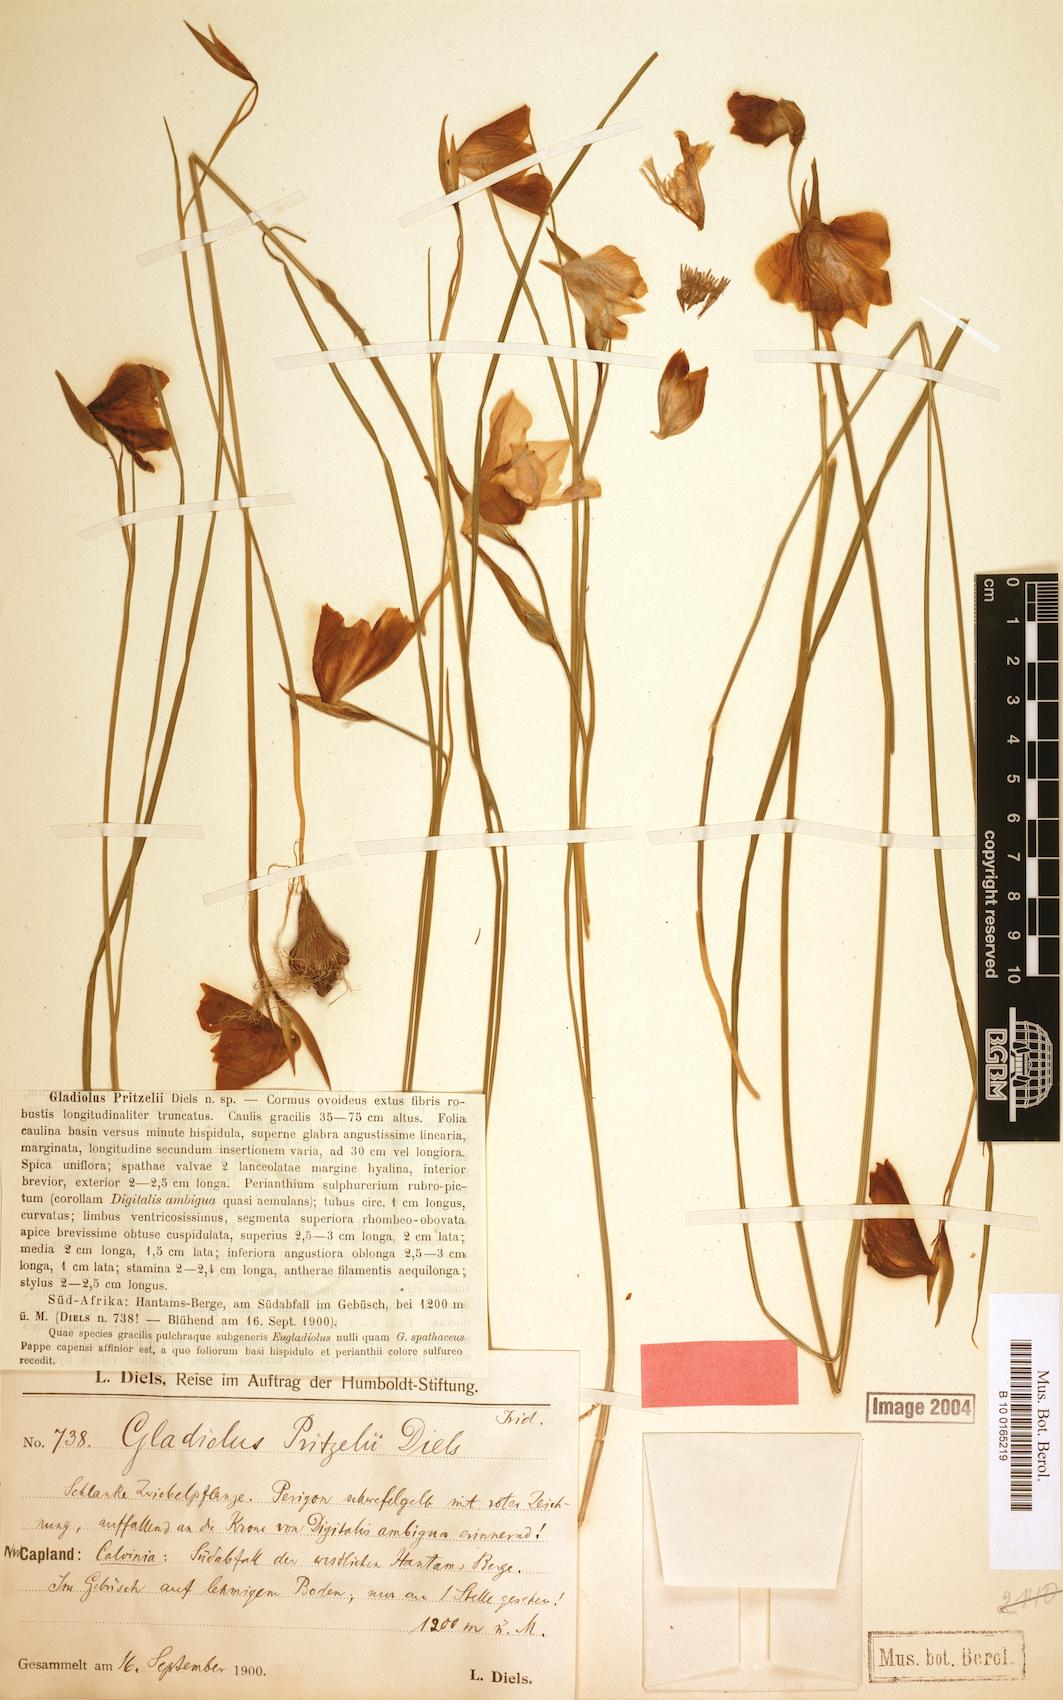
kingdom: Plantae
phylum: Tracheophyta
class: Liliopsida
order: Asparagales
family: Iridaceae
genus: Gladiolus
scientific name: Gladiolus pritzelii
